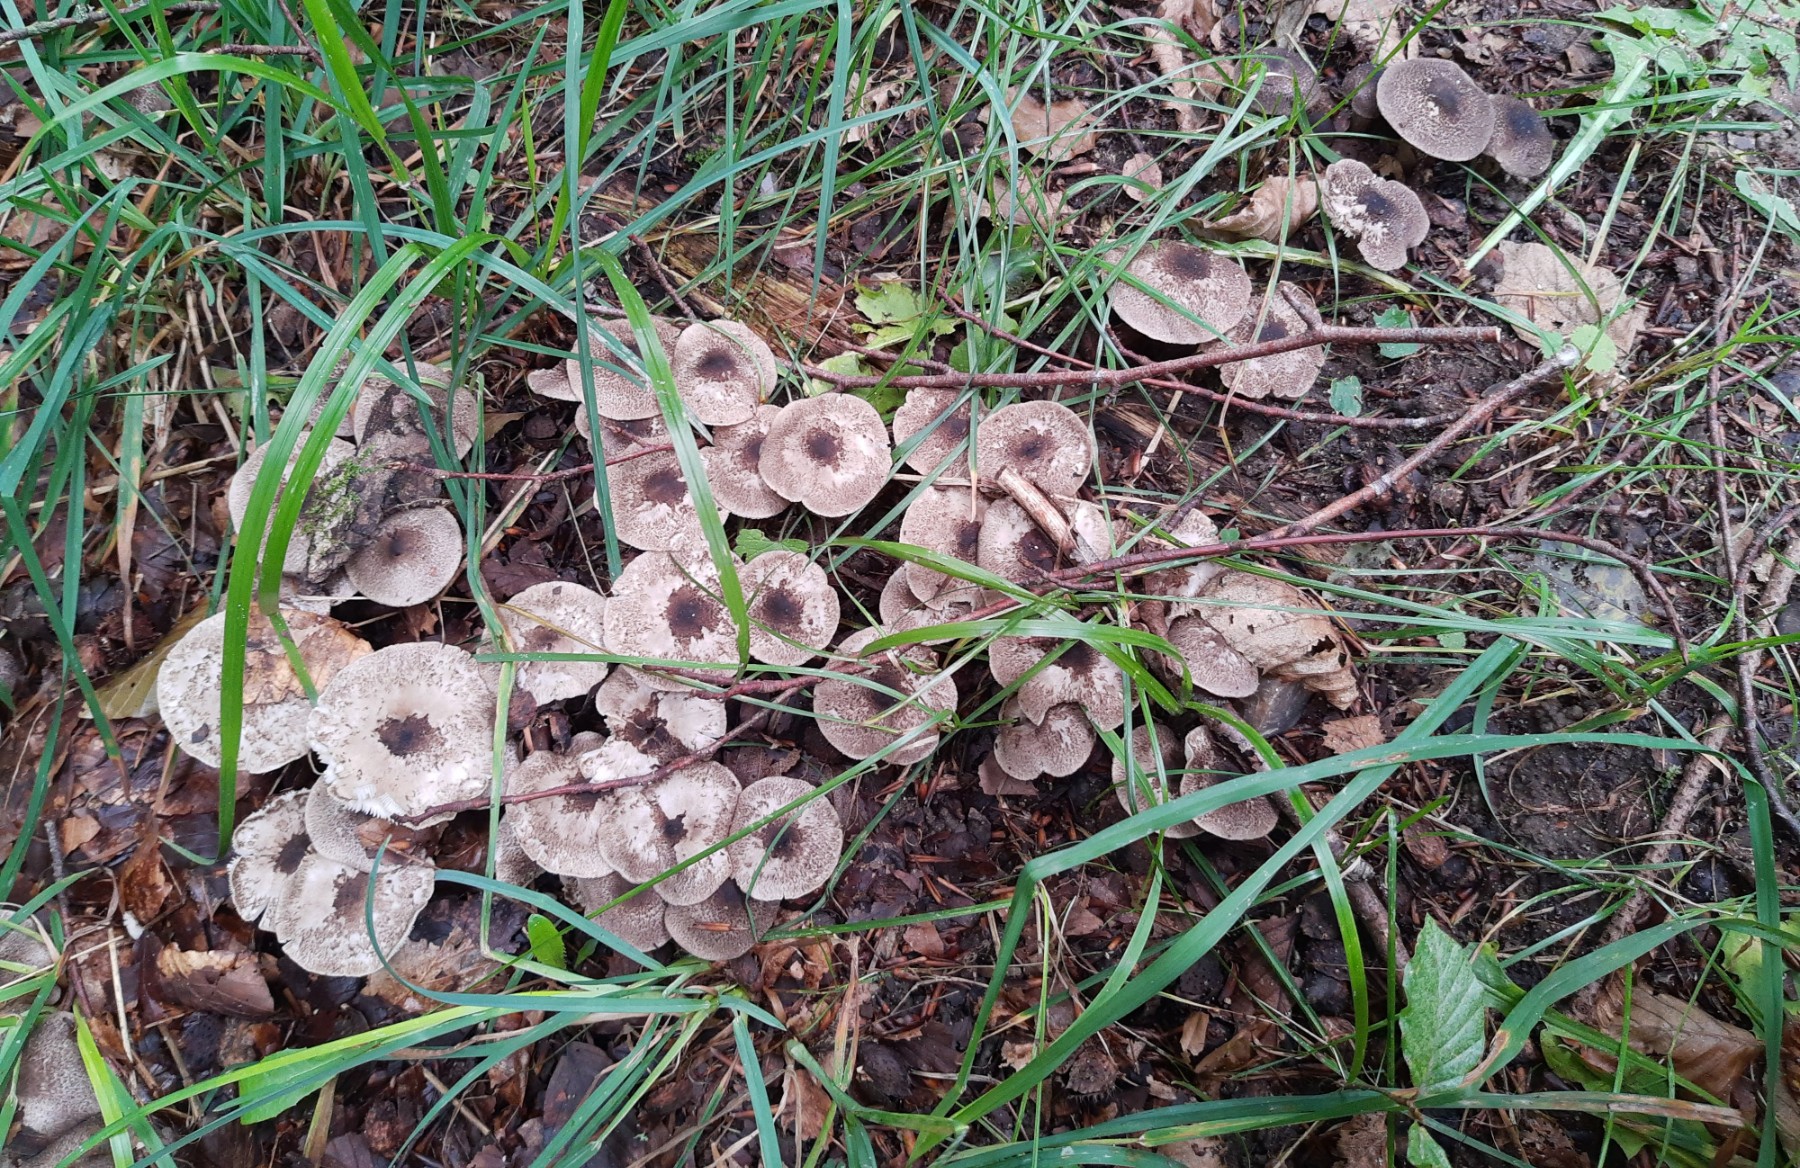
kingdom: Fungi
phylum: Basidiomycota
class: Agaricomycetes
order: Agaricales
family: Tricholomataceae
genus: Tricholoma
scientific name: Tricholoma scalpturatum
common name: gulplettet ridderhat
